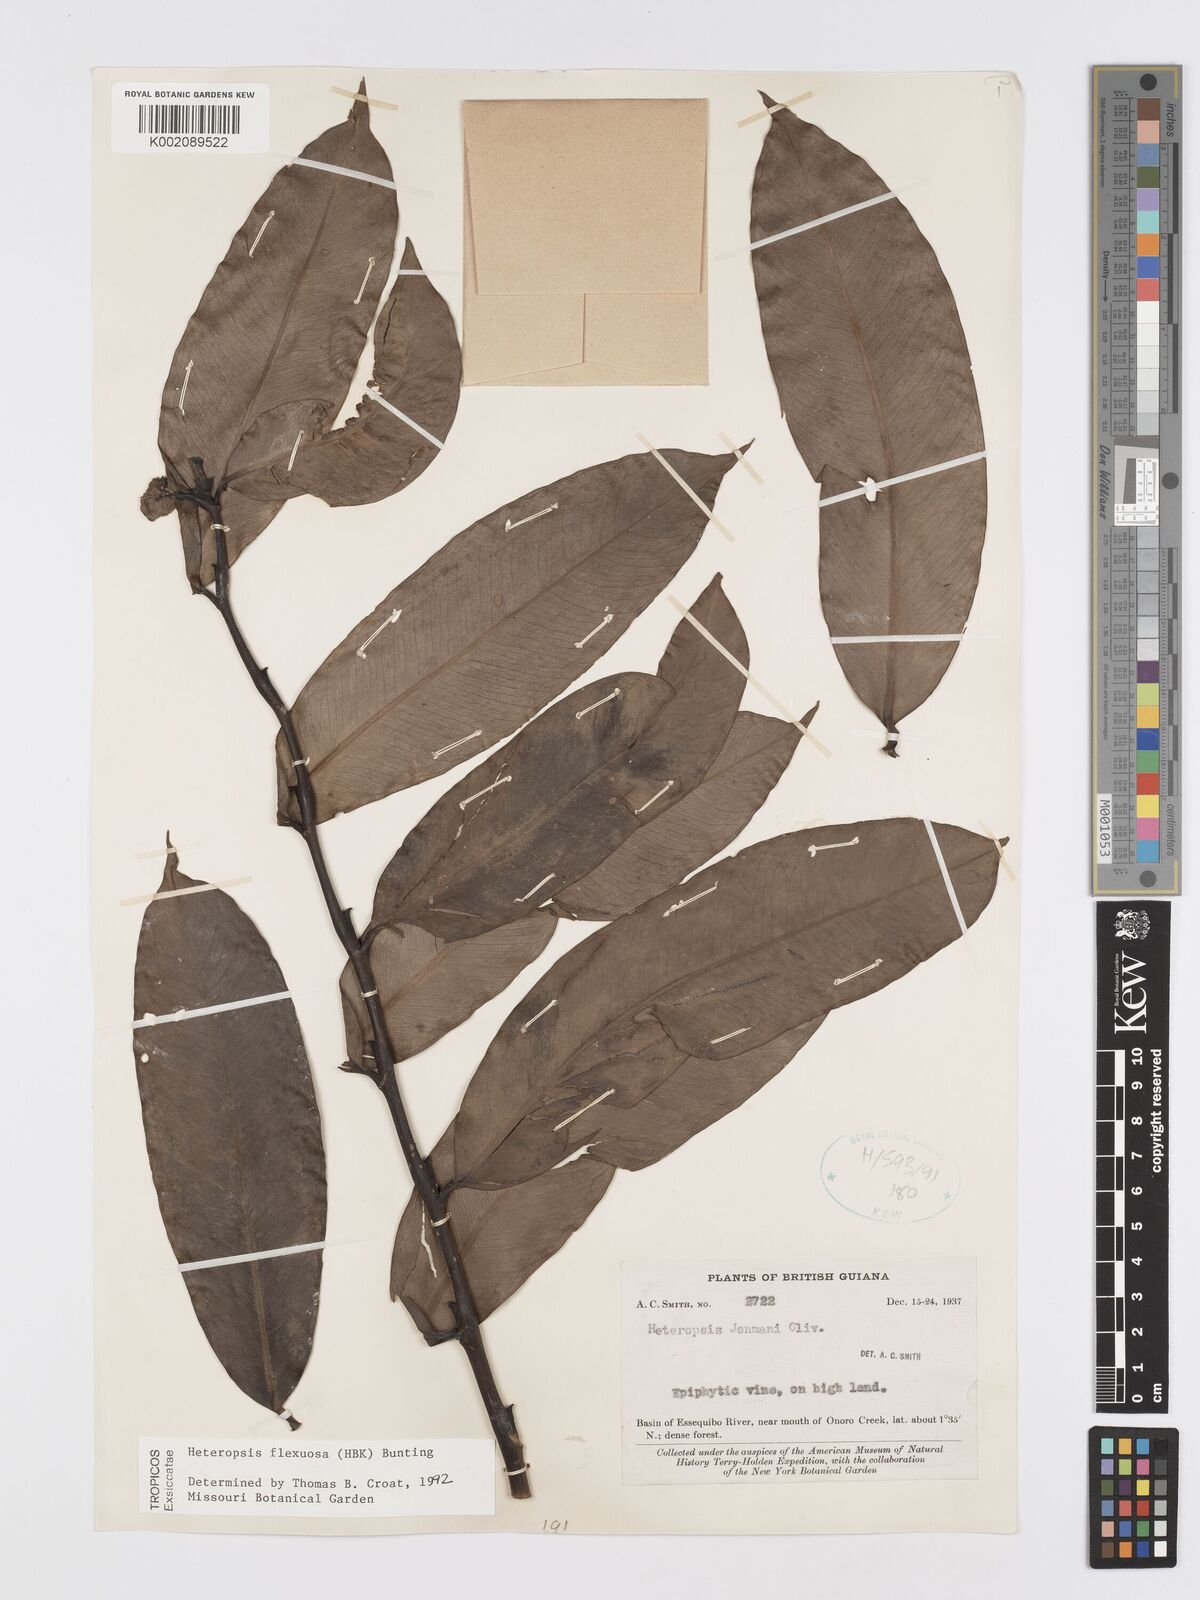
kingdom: Plantae
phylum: Tracheophyta
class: Liliopsida
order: Alismatales
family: Araceae
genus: Heteropsis
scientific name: Heteropsis flexuosa
